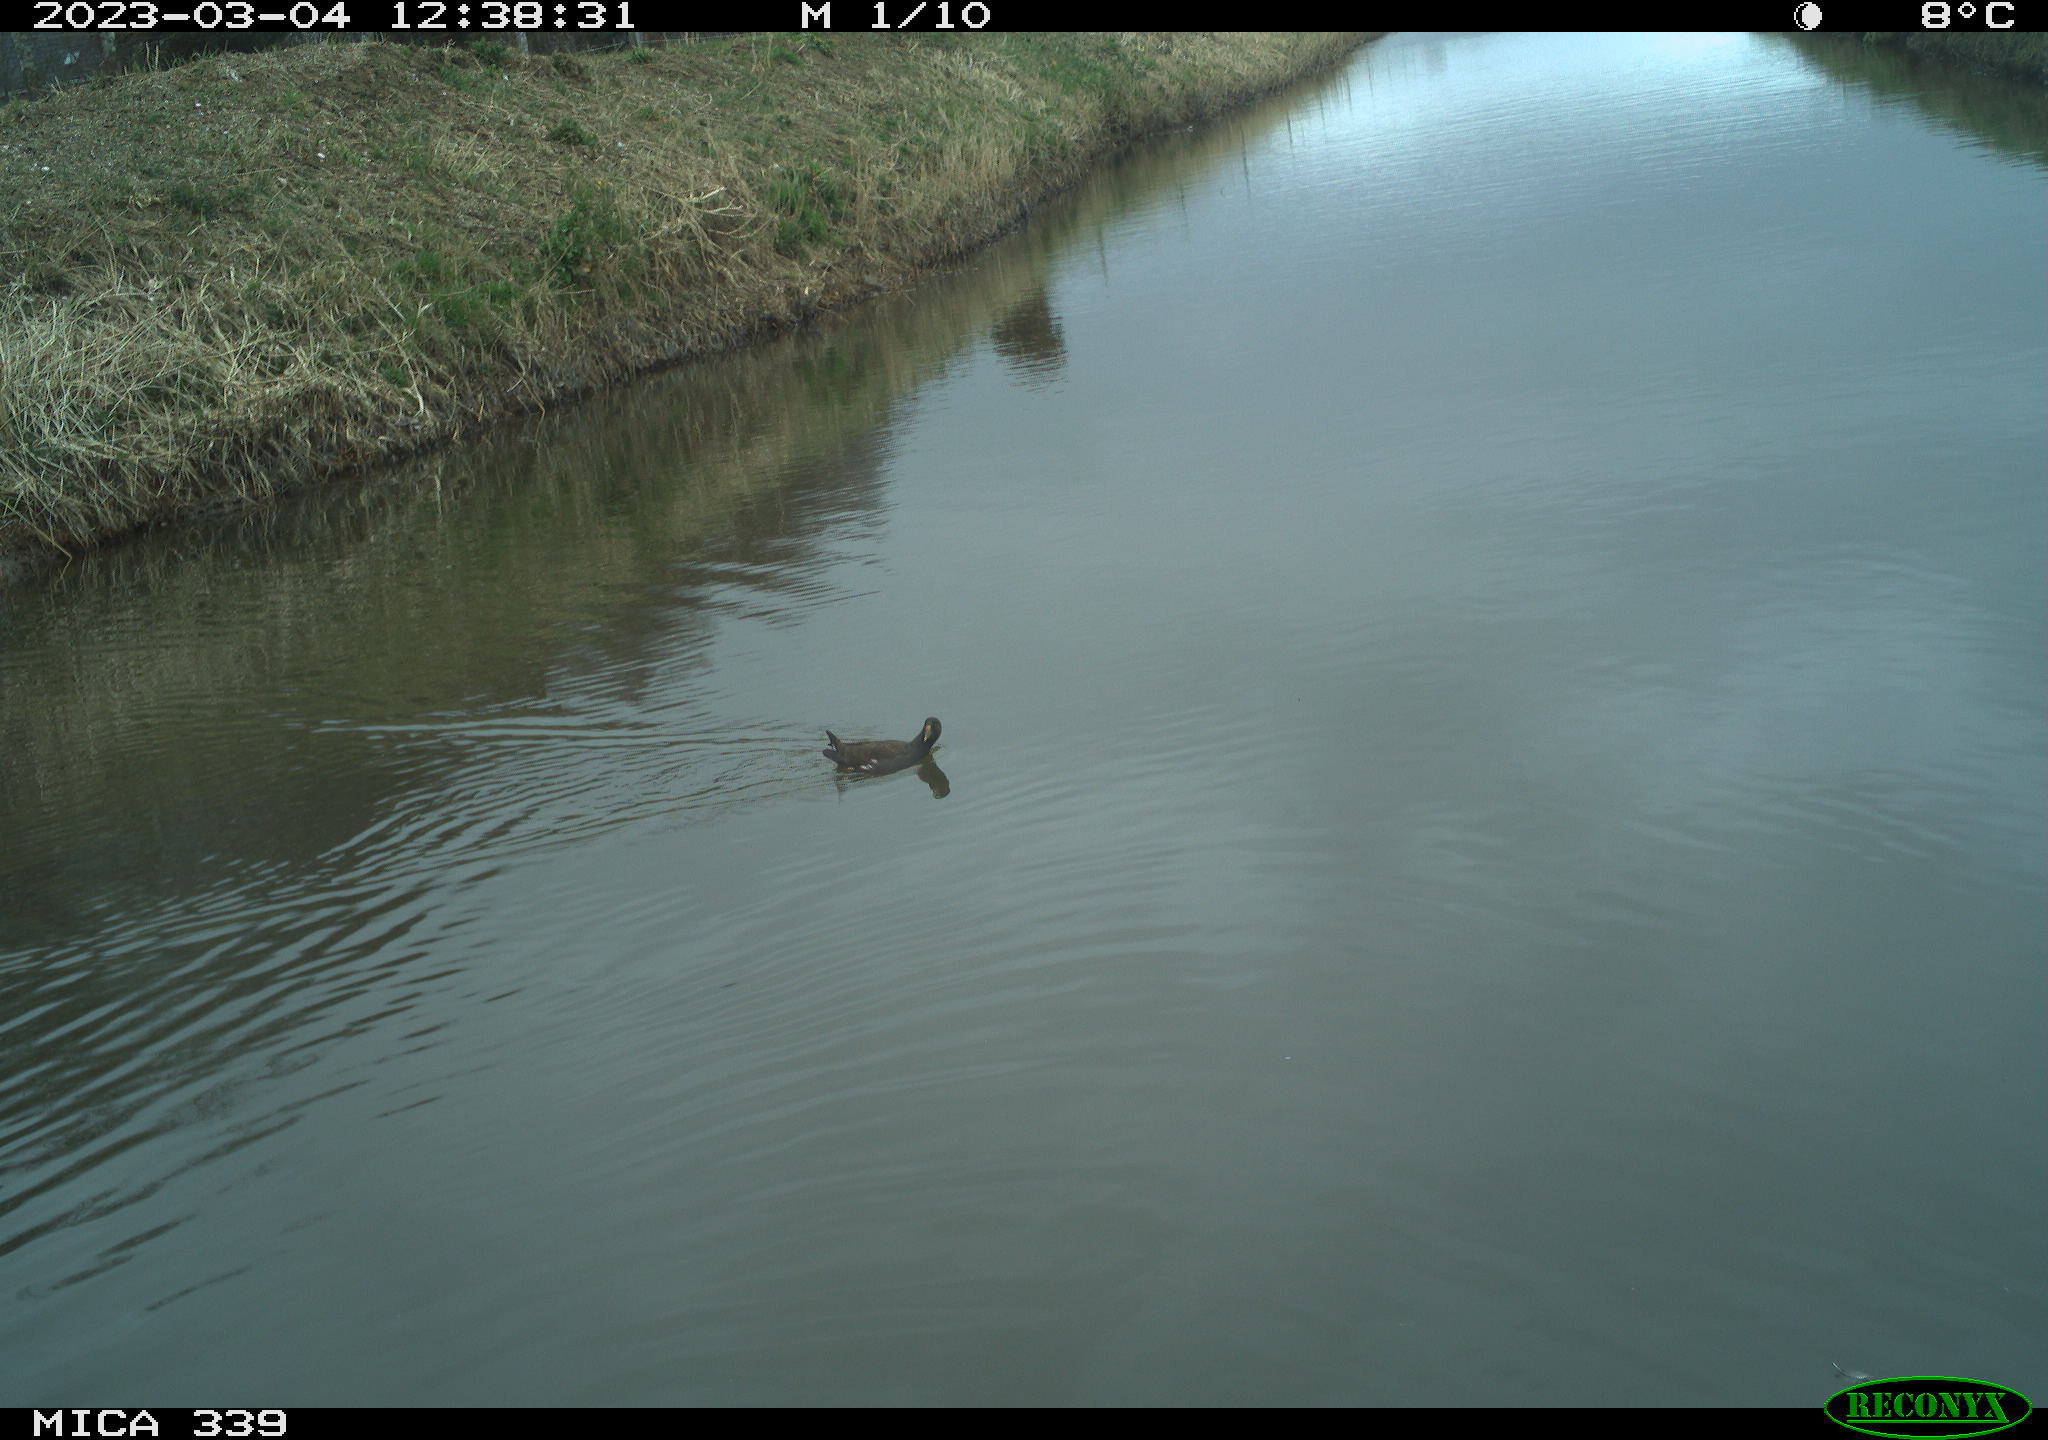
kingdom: Animalia
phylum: Chordata
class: Aves
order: Gruiformes
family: Rallidae
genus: Gallinula
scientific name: Gallinula chloropus
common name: Common moorhen
